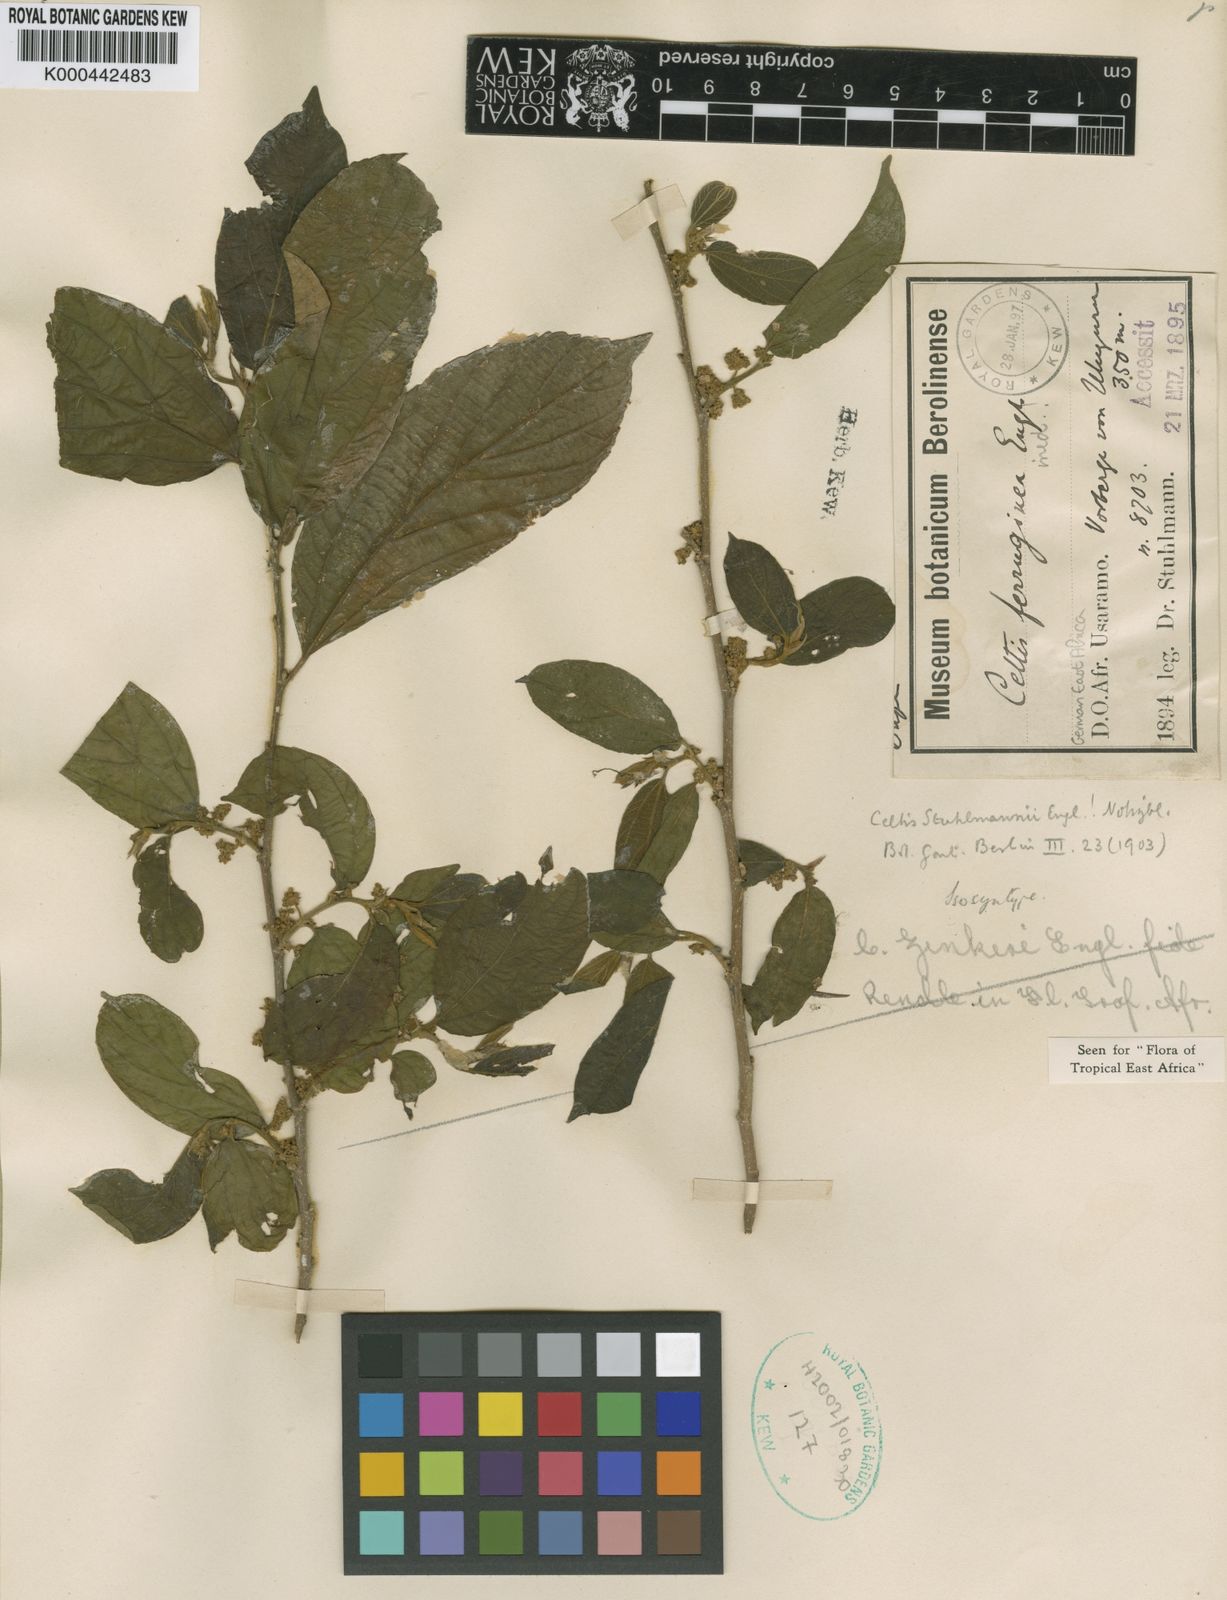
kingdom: Plantae
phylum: Tracheophyta
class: Magnoliopsida
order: Rosales
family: Cannabaceae
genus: Celtis
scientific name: Celtis zenkeri
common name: African celtis
